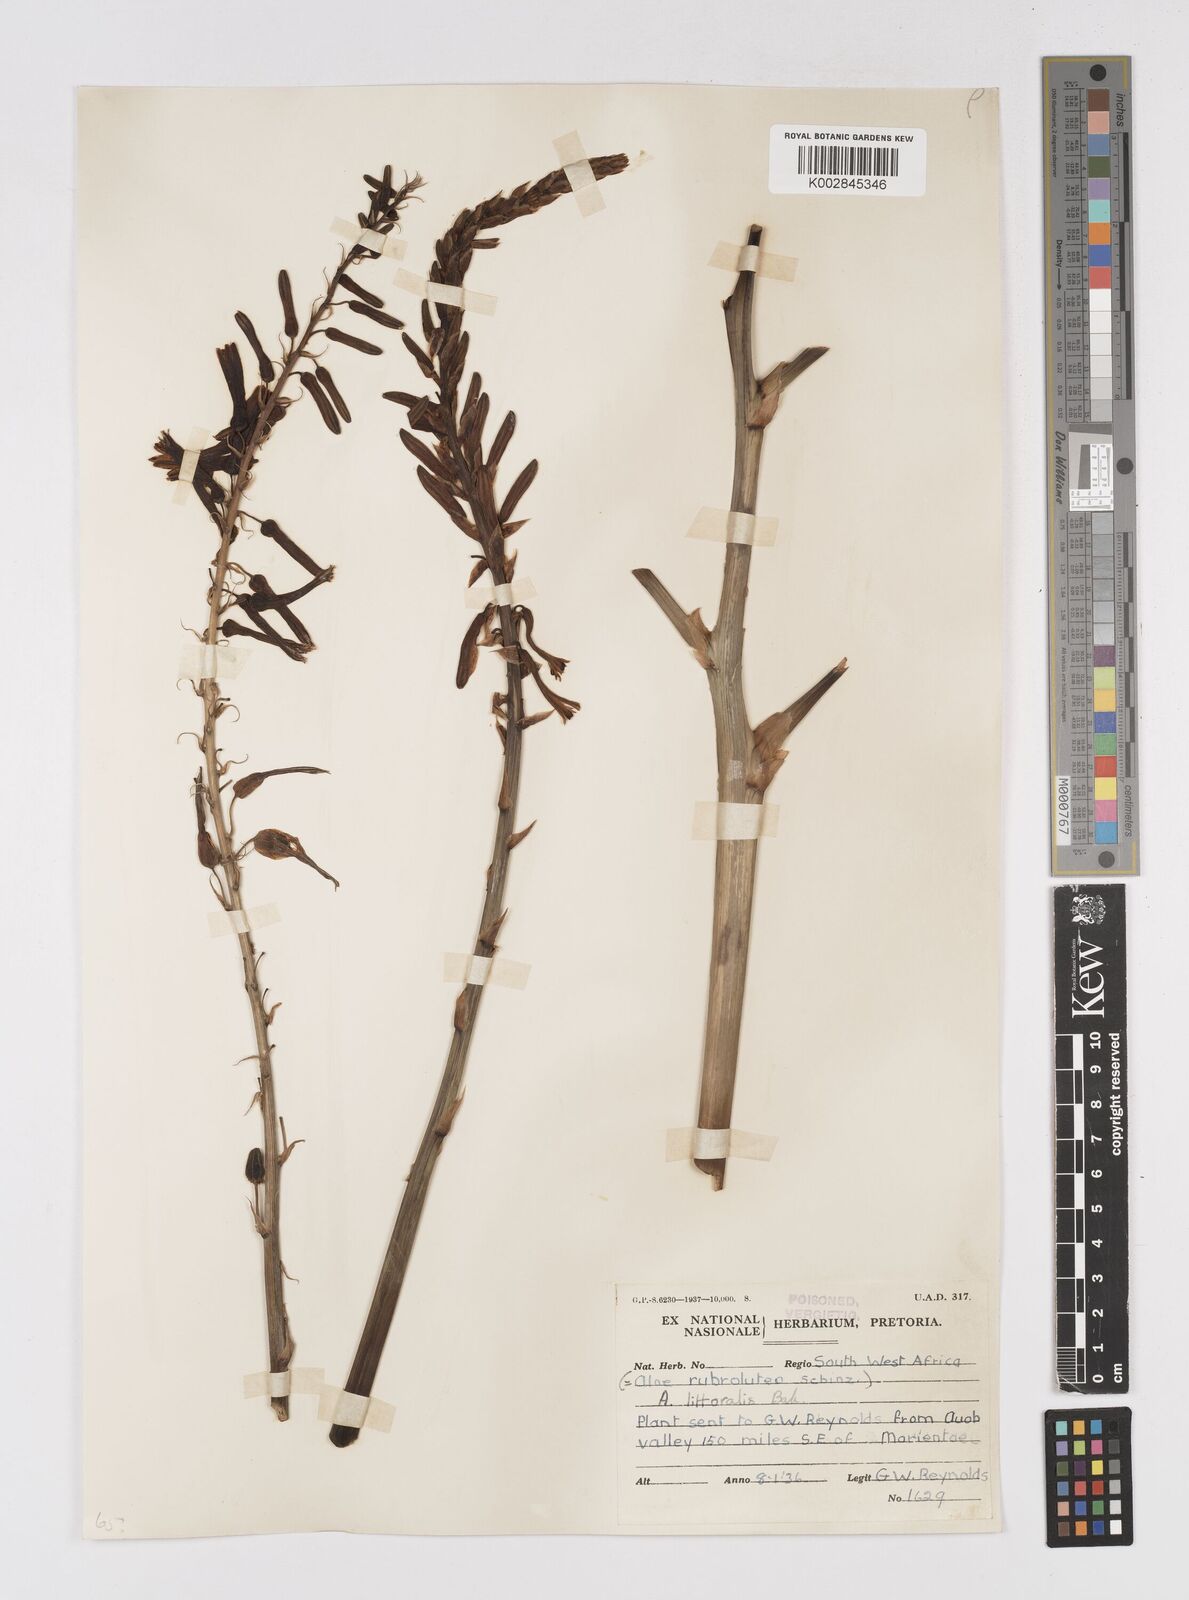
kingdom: Plantae
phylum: Tracheophyta
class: Liliopsida
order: Asparagales
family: Asphodelaceae
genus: Aloe
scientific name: Aloe littoralis
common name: Luanda tree aloe
